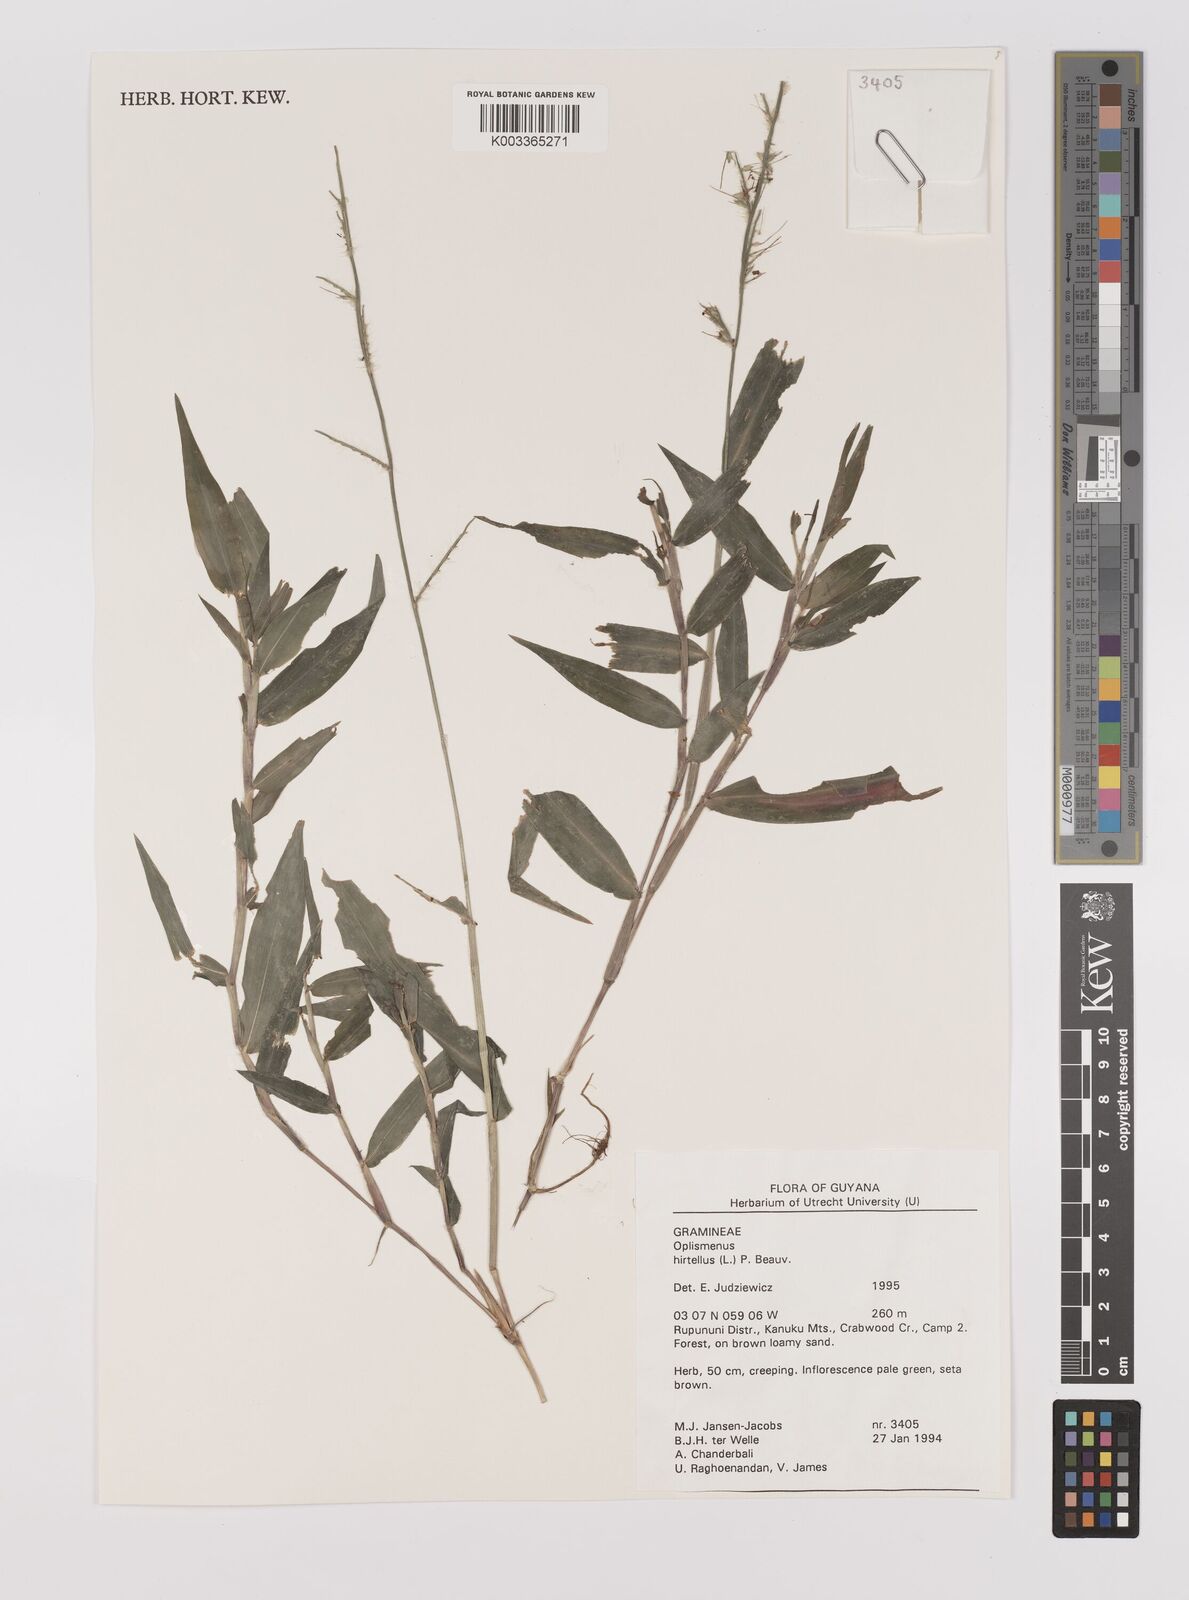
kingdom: Plantae
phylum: Tracheophyta
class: Liliopsida
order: Poales
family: Poaceae
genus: Oplismenus
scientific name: Oplismenus hirtellus
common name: Basketgrass
